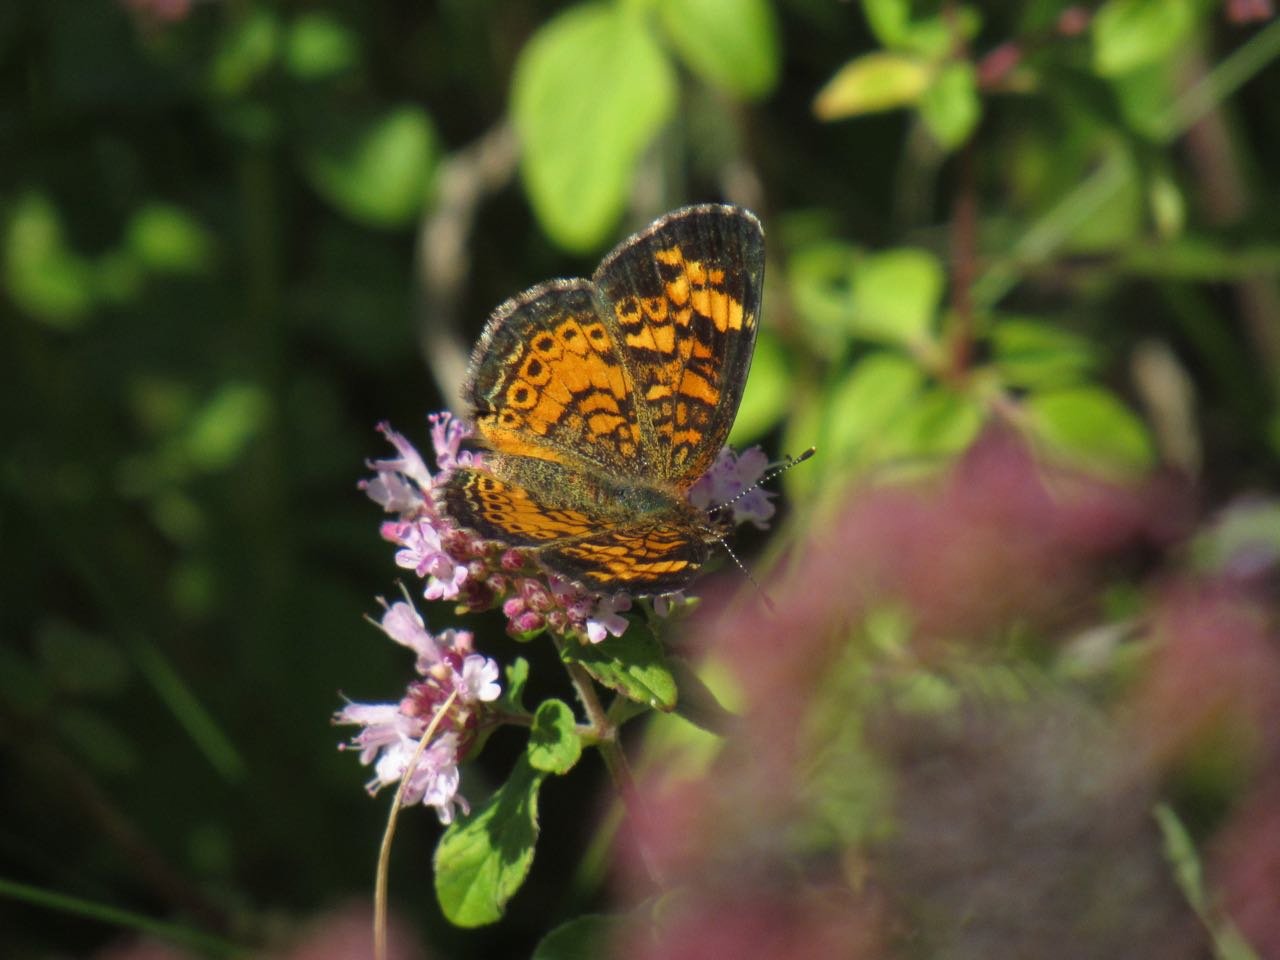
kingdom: Animalia
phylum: Arthropoda
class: Insecta
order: Lepidoptera
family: Nymphalidae
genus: Phyciodes
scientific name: Phyciodes tharos
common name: Pearl Crescent
